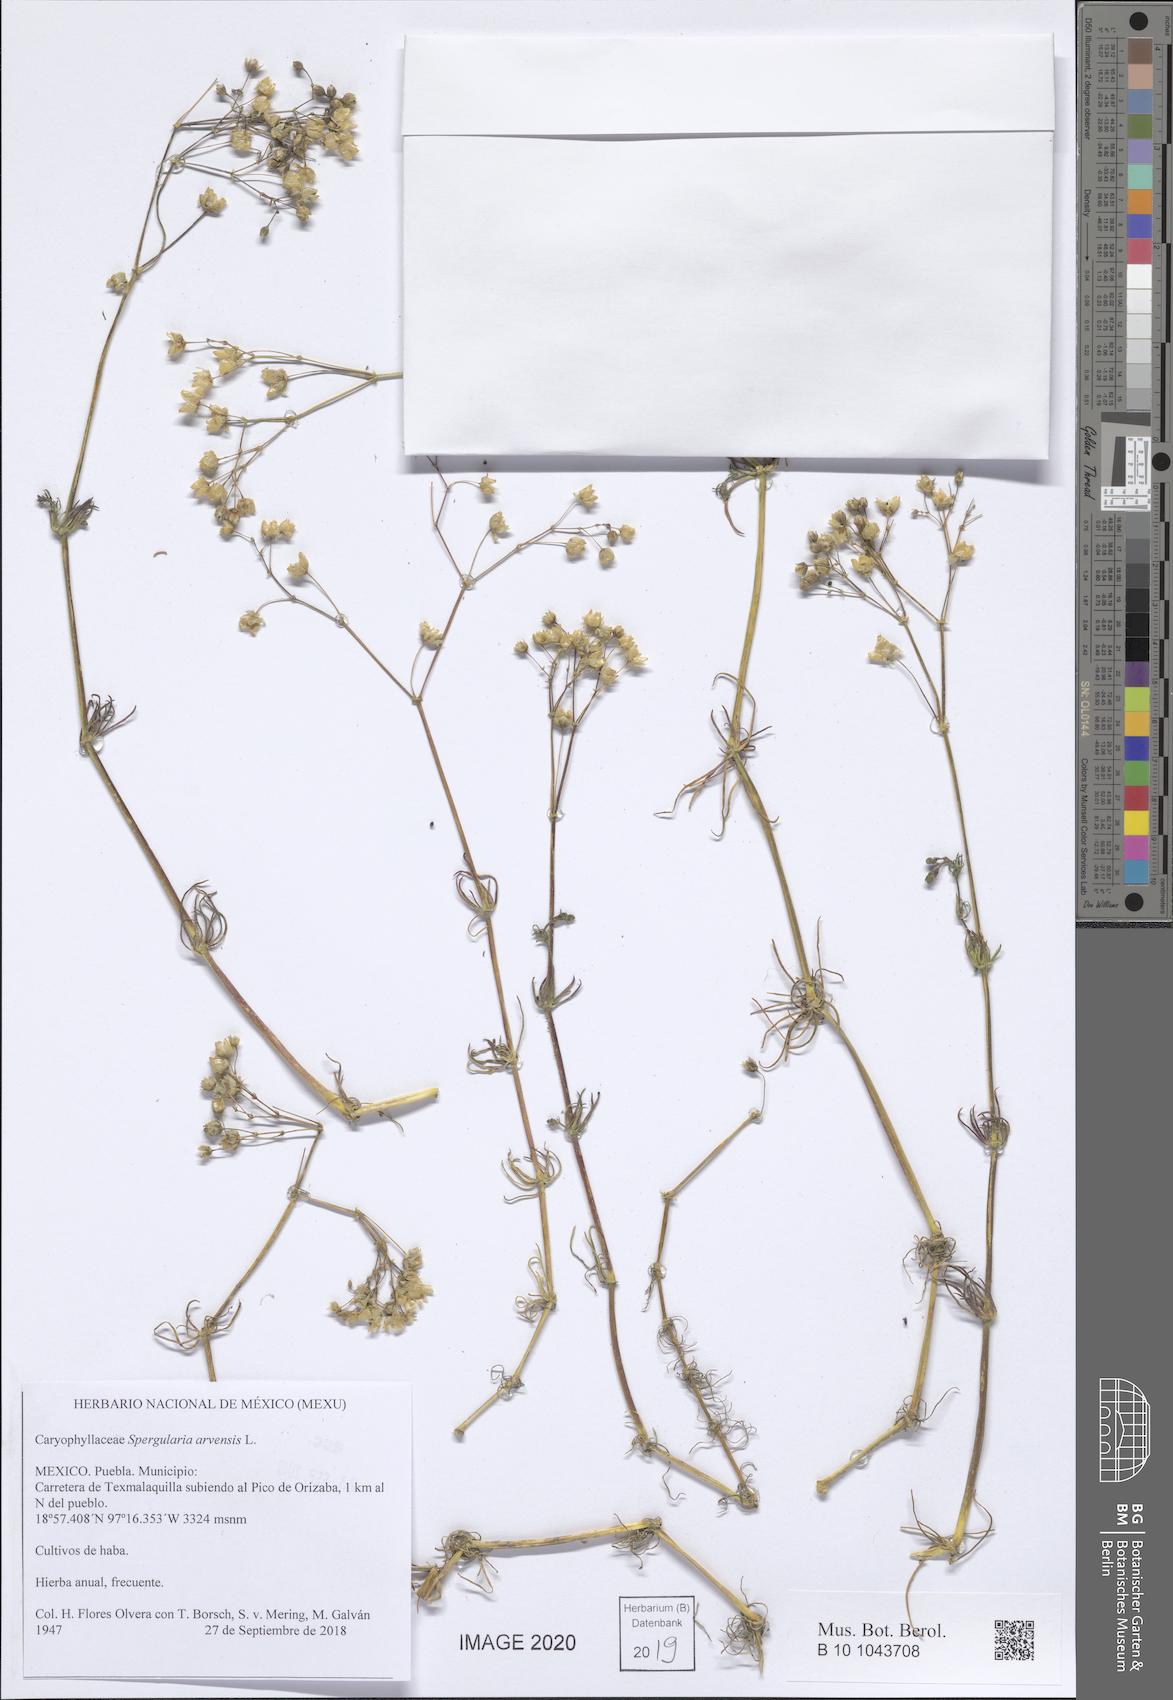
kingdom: Plantae
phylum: Tracheophyta
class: Magnoliopsida
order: Caryophyllales
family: Caryophyllaceae
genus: Spergula
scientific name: Spergula arvensis
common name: Corn spurrey
